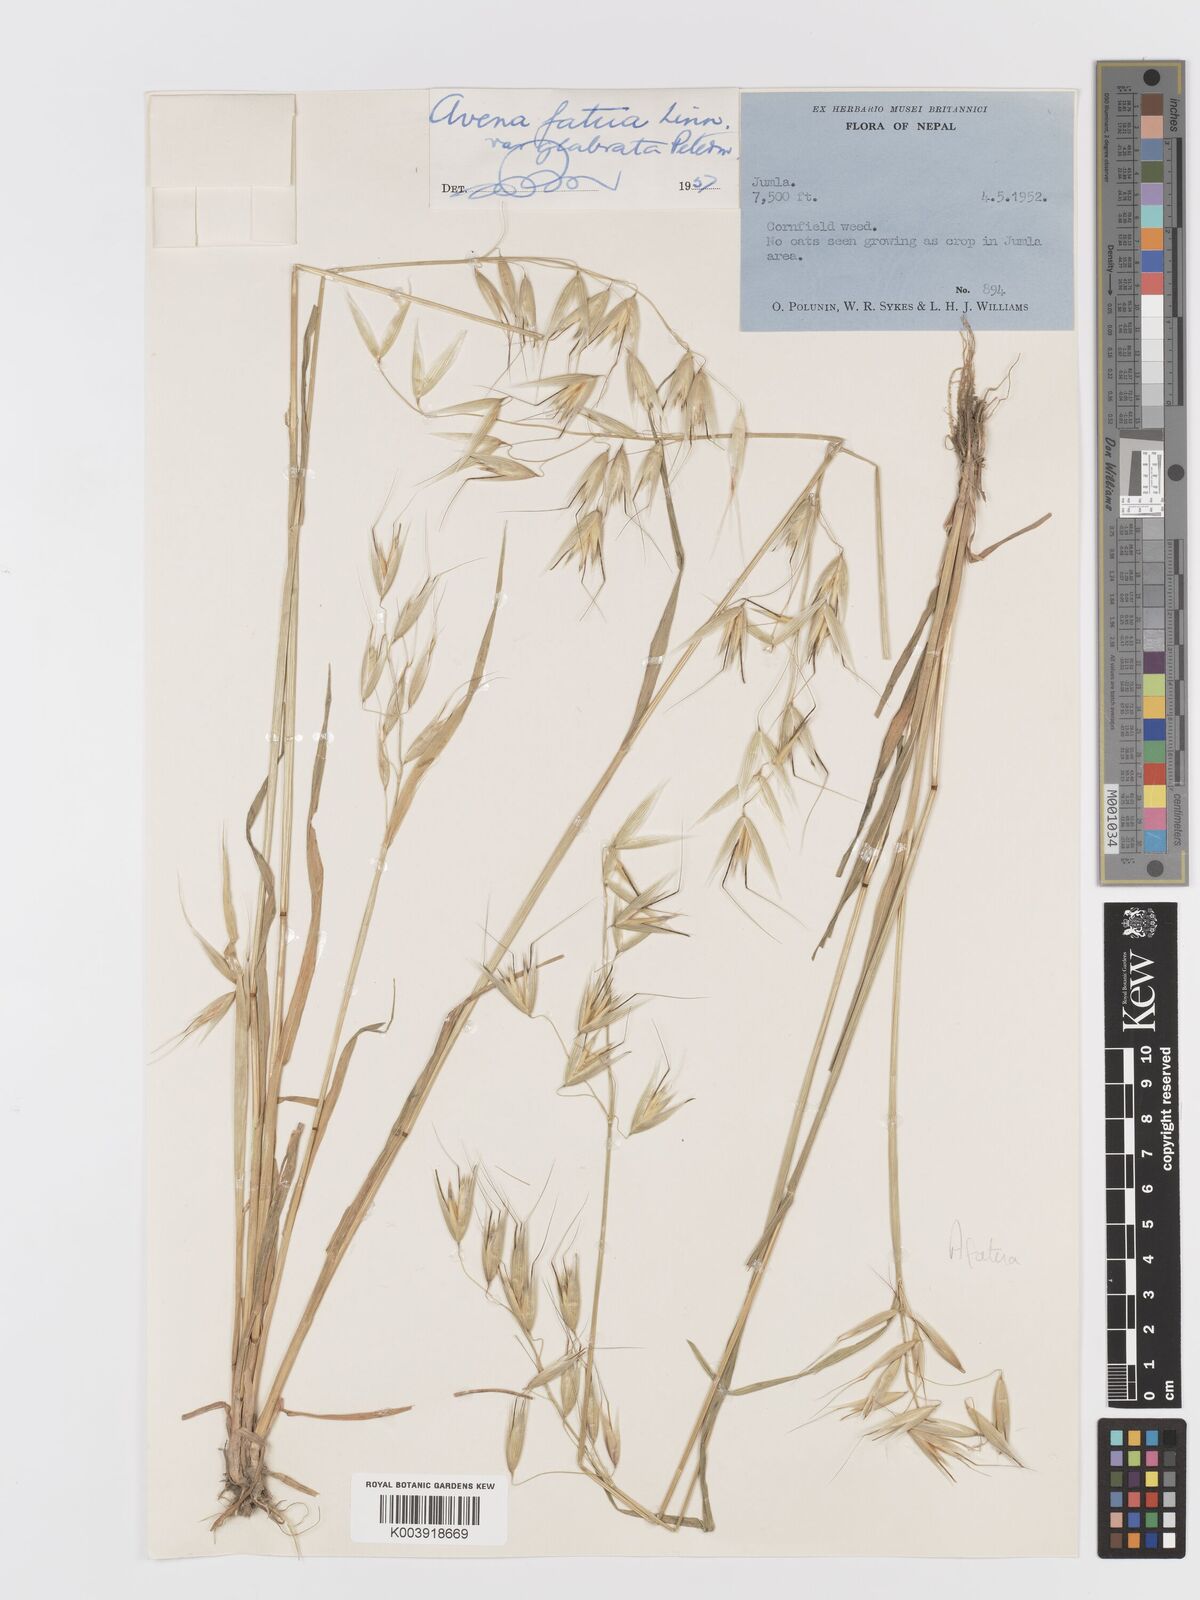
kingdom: Plantae
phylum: Tracheophyta
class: Liliopsida
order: Poales
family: Poaceae
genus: Avena
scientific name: Avena fatua
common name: Wild oat
